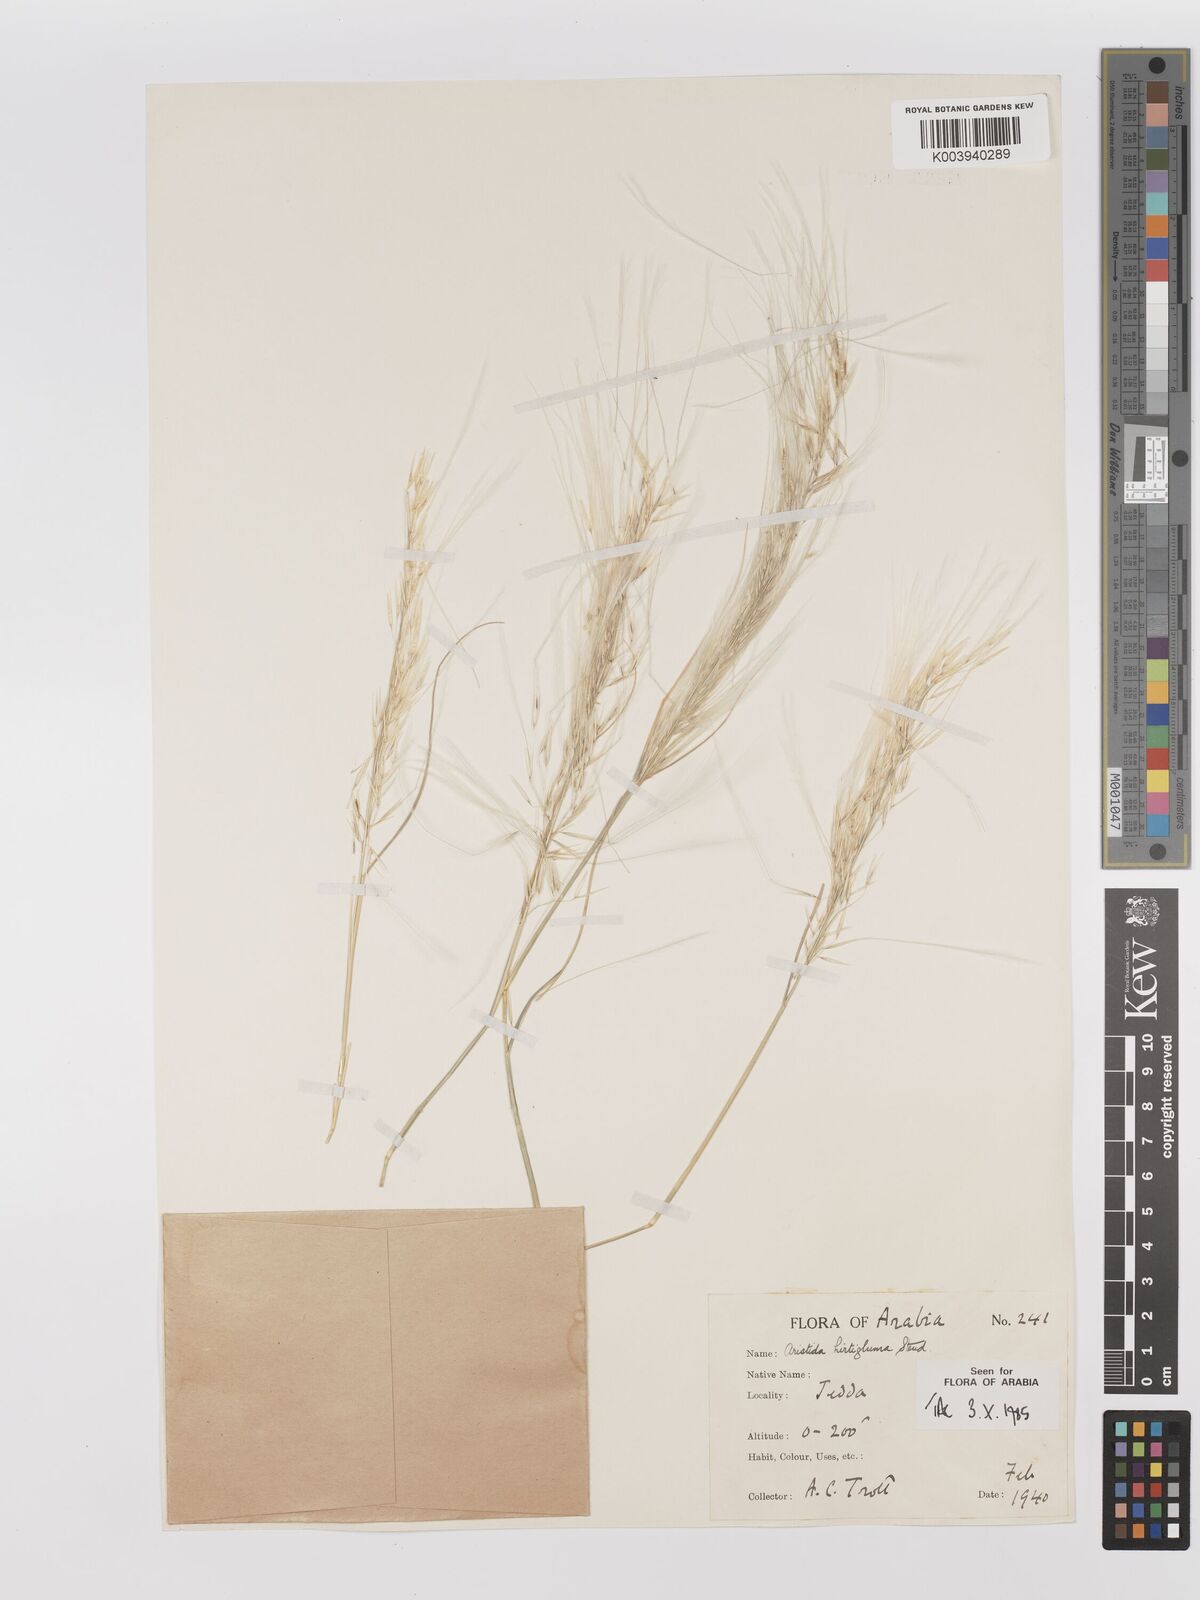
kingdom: Plantae
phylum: Tracheophyta
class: Liliopsida
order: Poales
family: Poaceae
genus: Stipagrostis
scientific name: Stipagrostis hirtigluma
